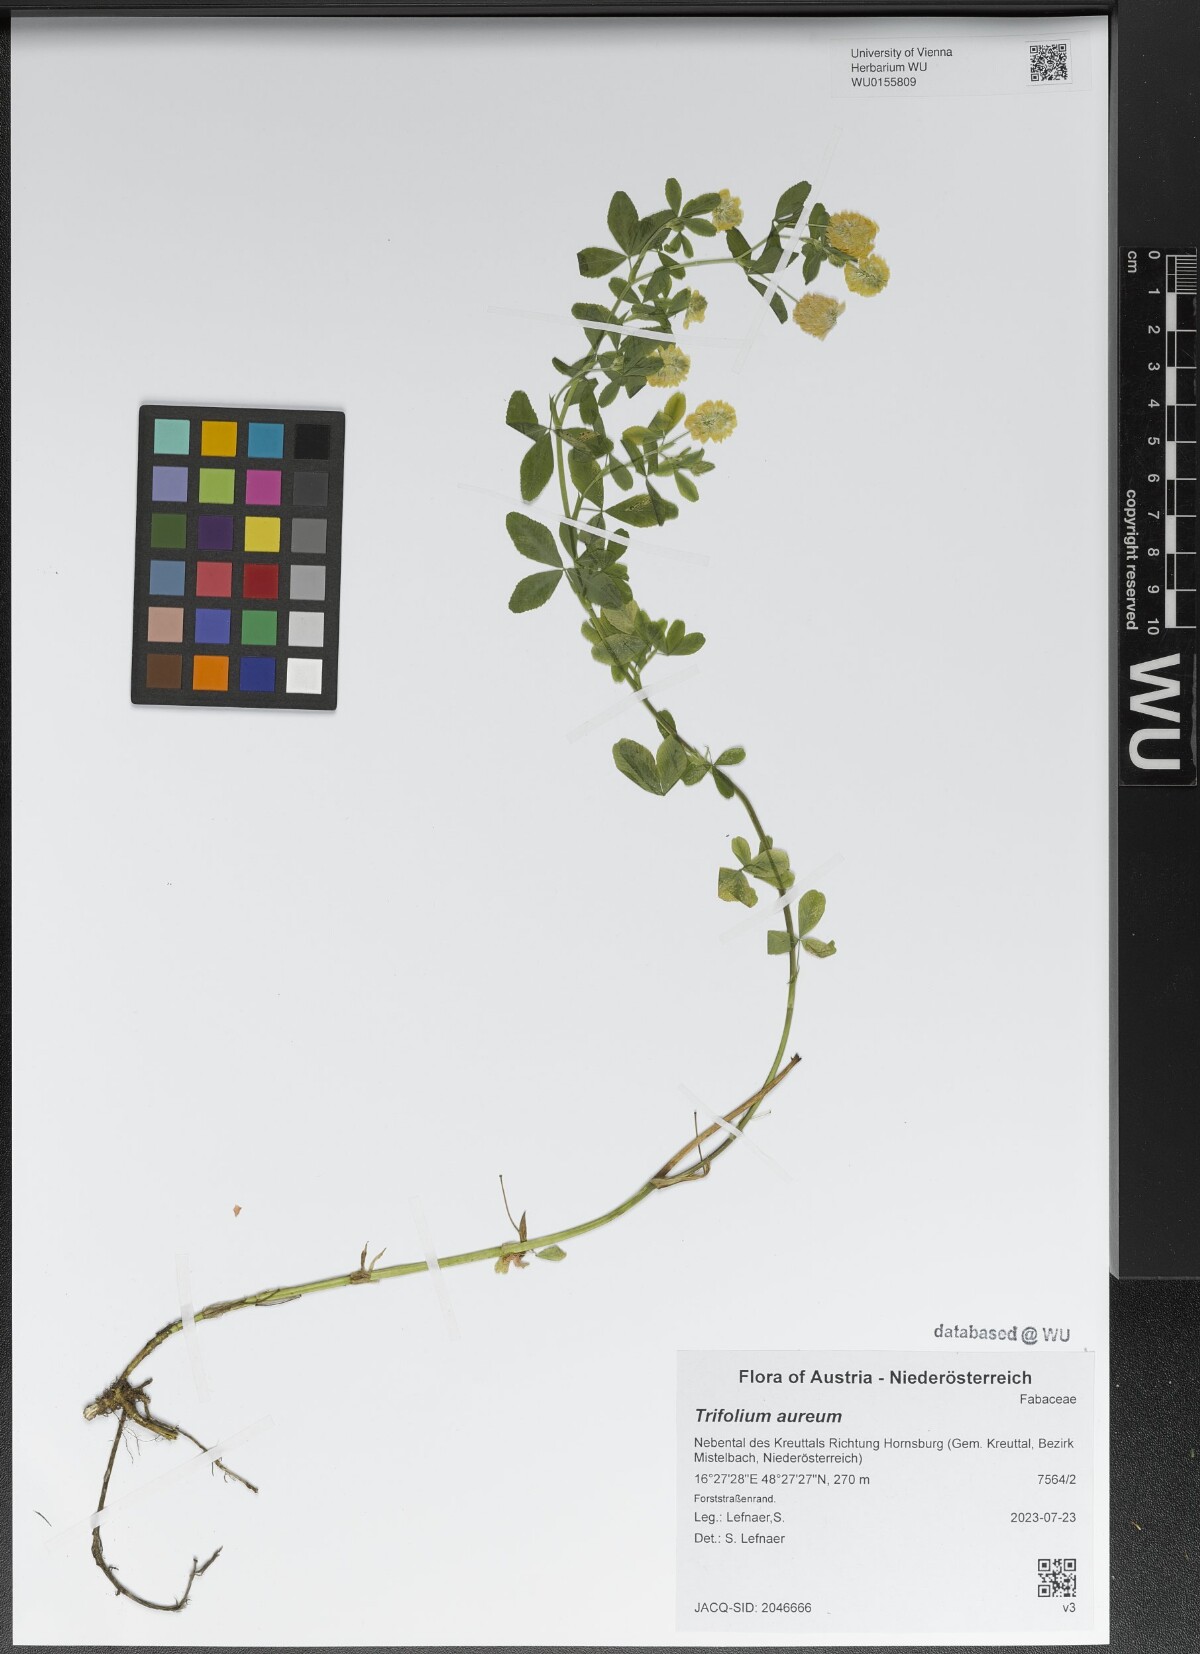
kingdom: Plantae
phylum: Tracheophyta
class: Magnoliopsida
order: Fabales
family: Fabaceae
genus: Trifolium
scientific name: Trifolium aureum
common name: Golden clover
